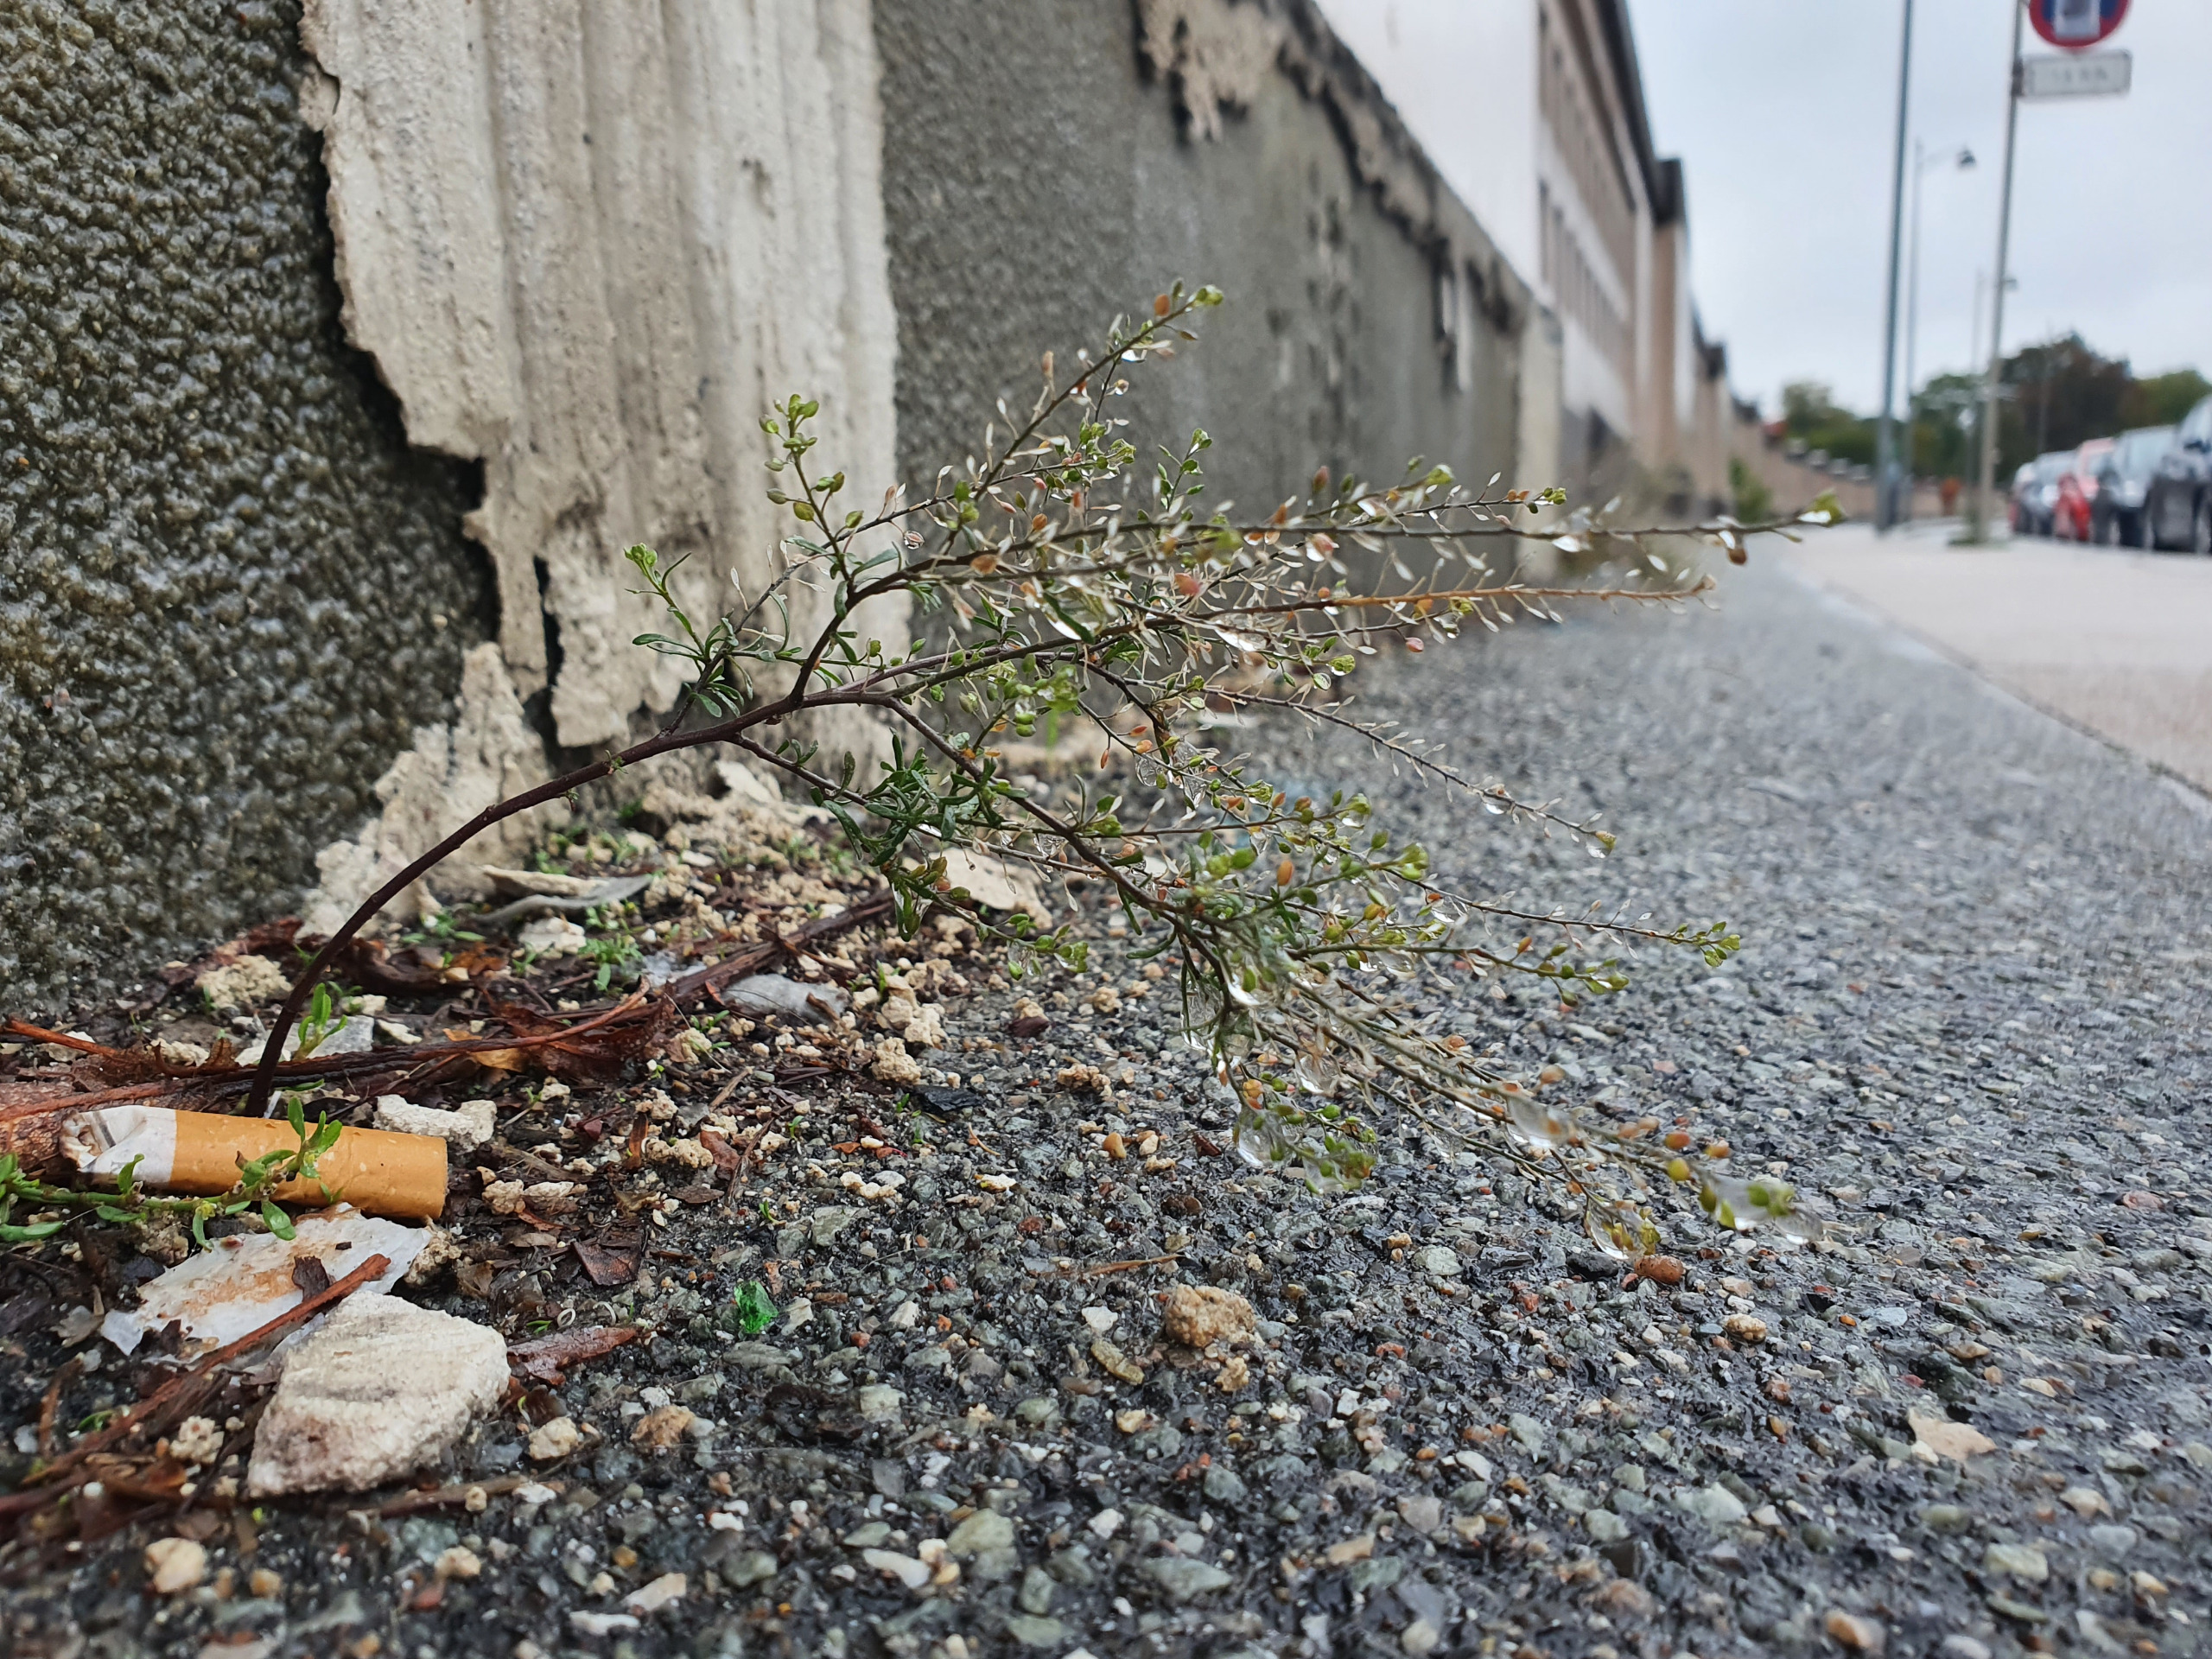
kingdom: Plantae
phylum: Tracheophyta
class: Magnoliopsida
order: Brassicales
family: Brassicaceae
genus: Lepidium
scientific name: Lepidium ruderale
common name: Stinkende karse
